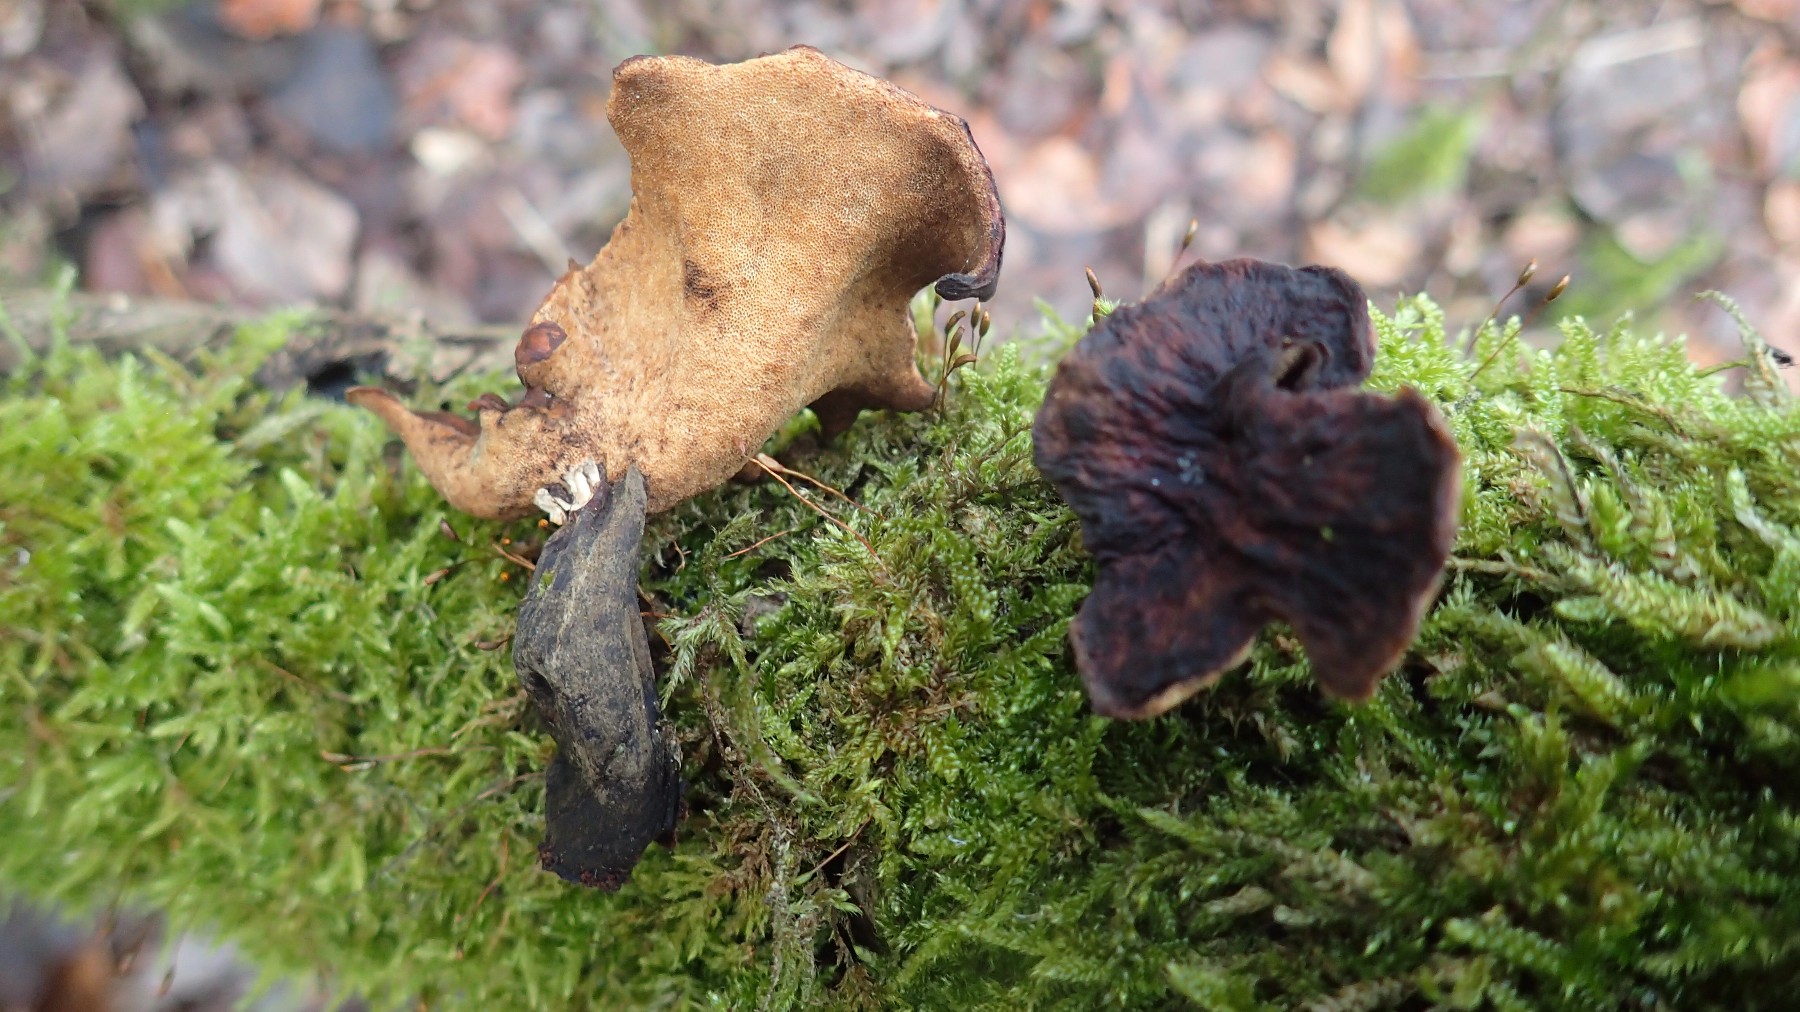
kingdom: Fungi
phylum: Basidiomycota
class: Agaricomycetes
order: Polyporales
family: Polyporaceae
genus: Cerioporus
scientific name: Cerioporus varius
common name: foranderlig stilkporesvamp
